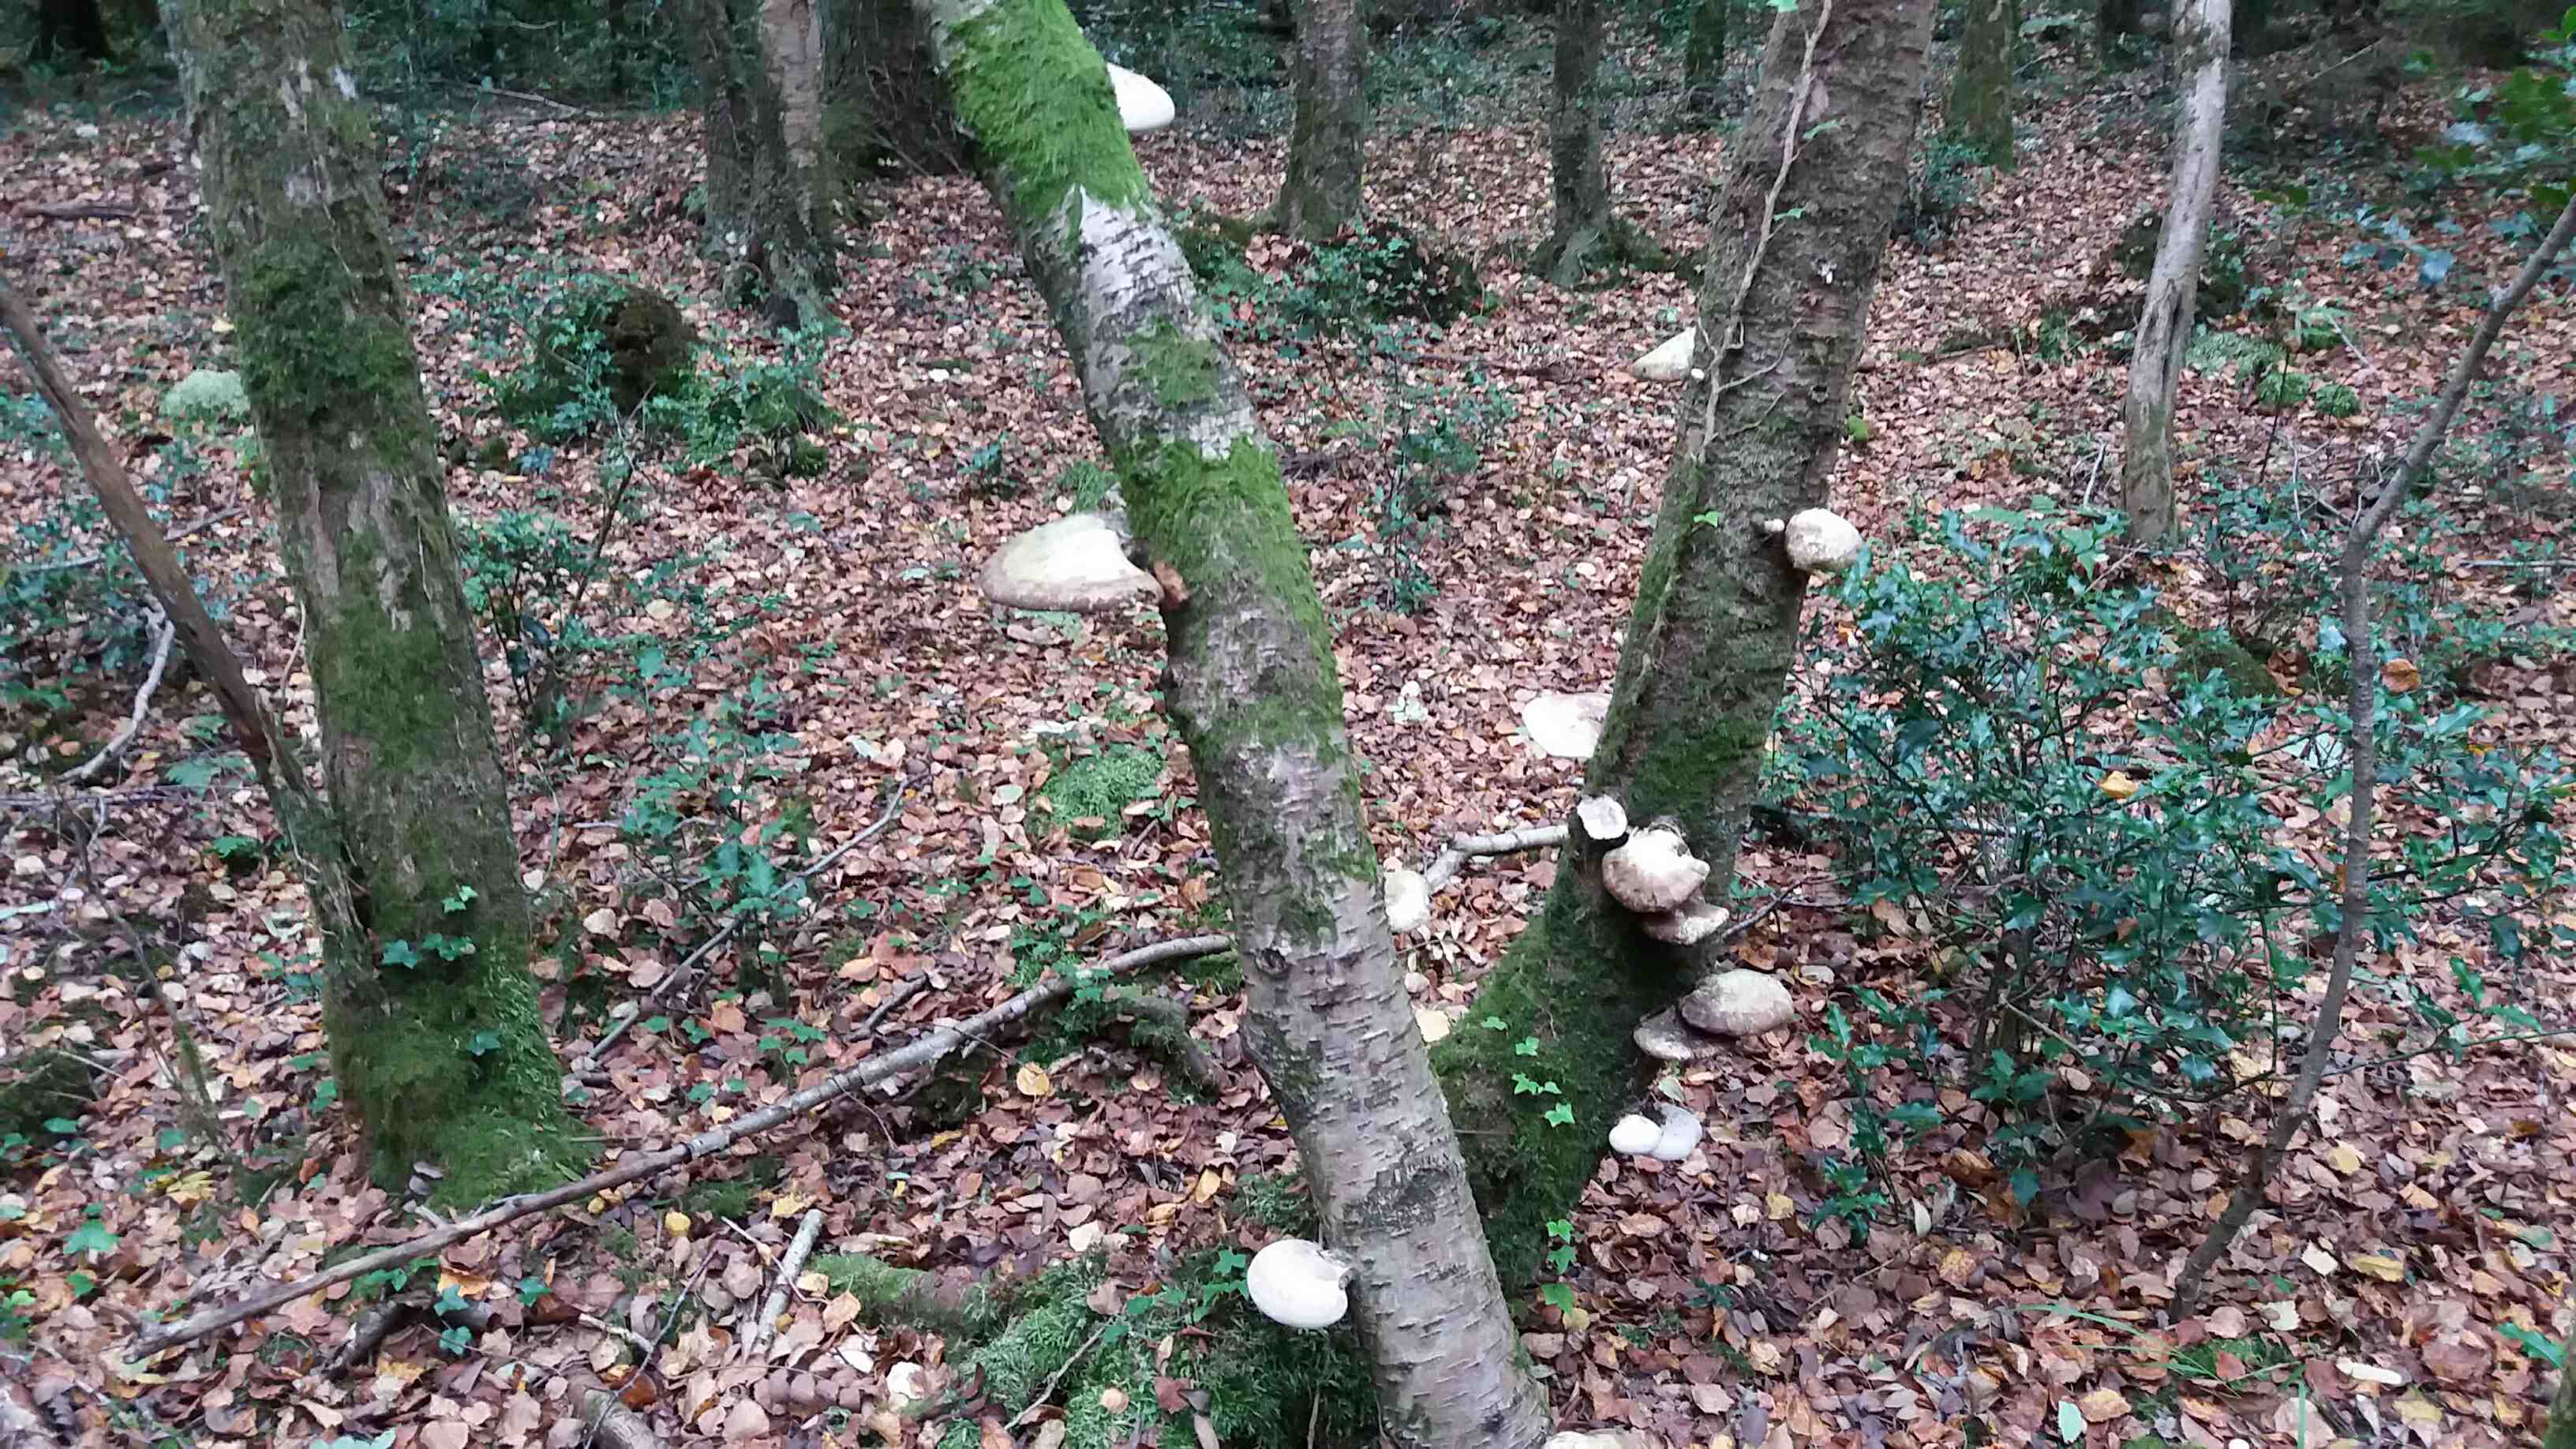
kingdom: Fungi
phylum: Basidiomycota
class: Agaricomycetes
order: Polyporales
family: Fomitopsidaceae
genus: Fomitopsis
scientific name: Fomitopsis betulina
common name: birkeporesvamp
